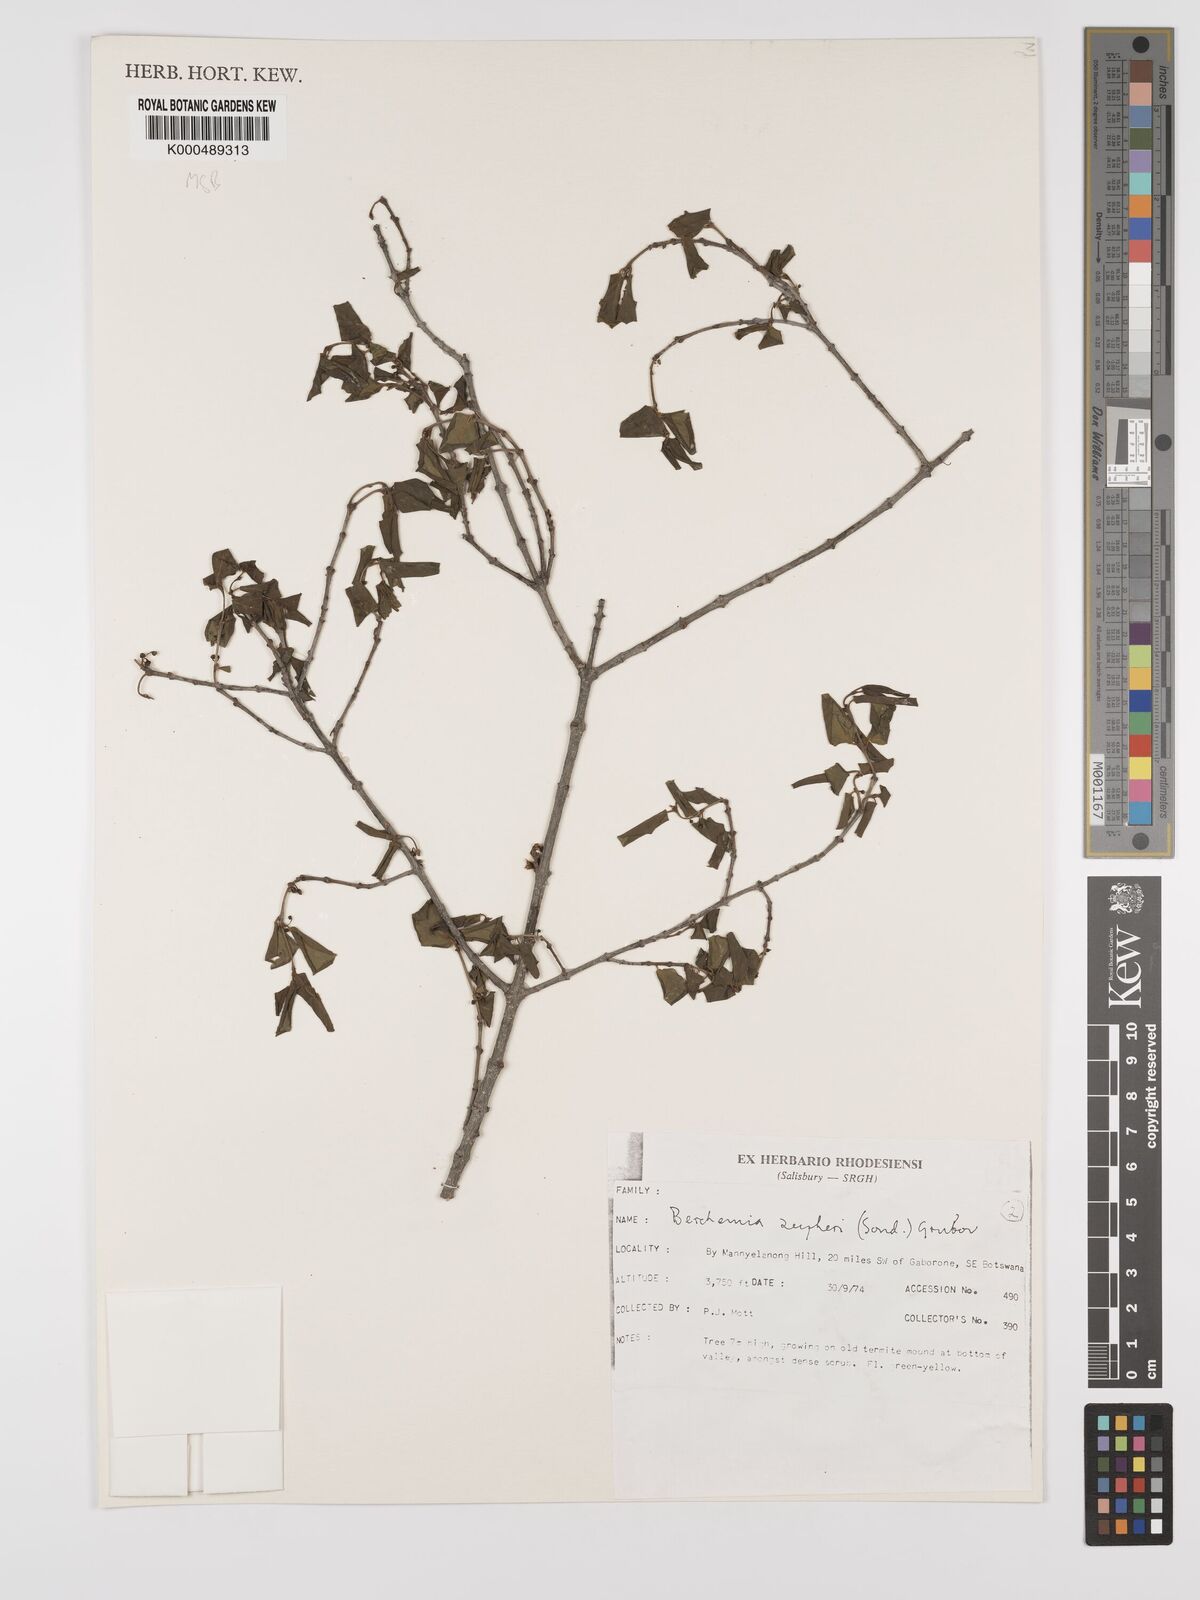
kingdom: Plantae
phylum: Tracheophyta
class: Magnoliopsida
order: Rosales
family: Rhamnaceae
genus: Phyllogeiton
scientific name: Phyllogeiton zeyheri
